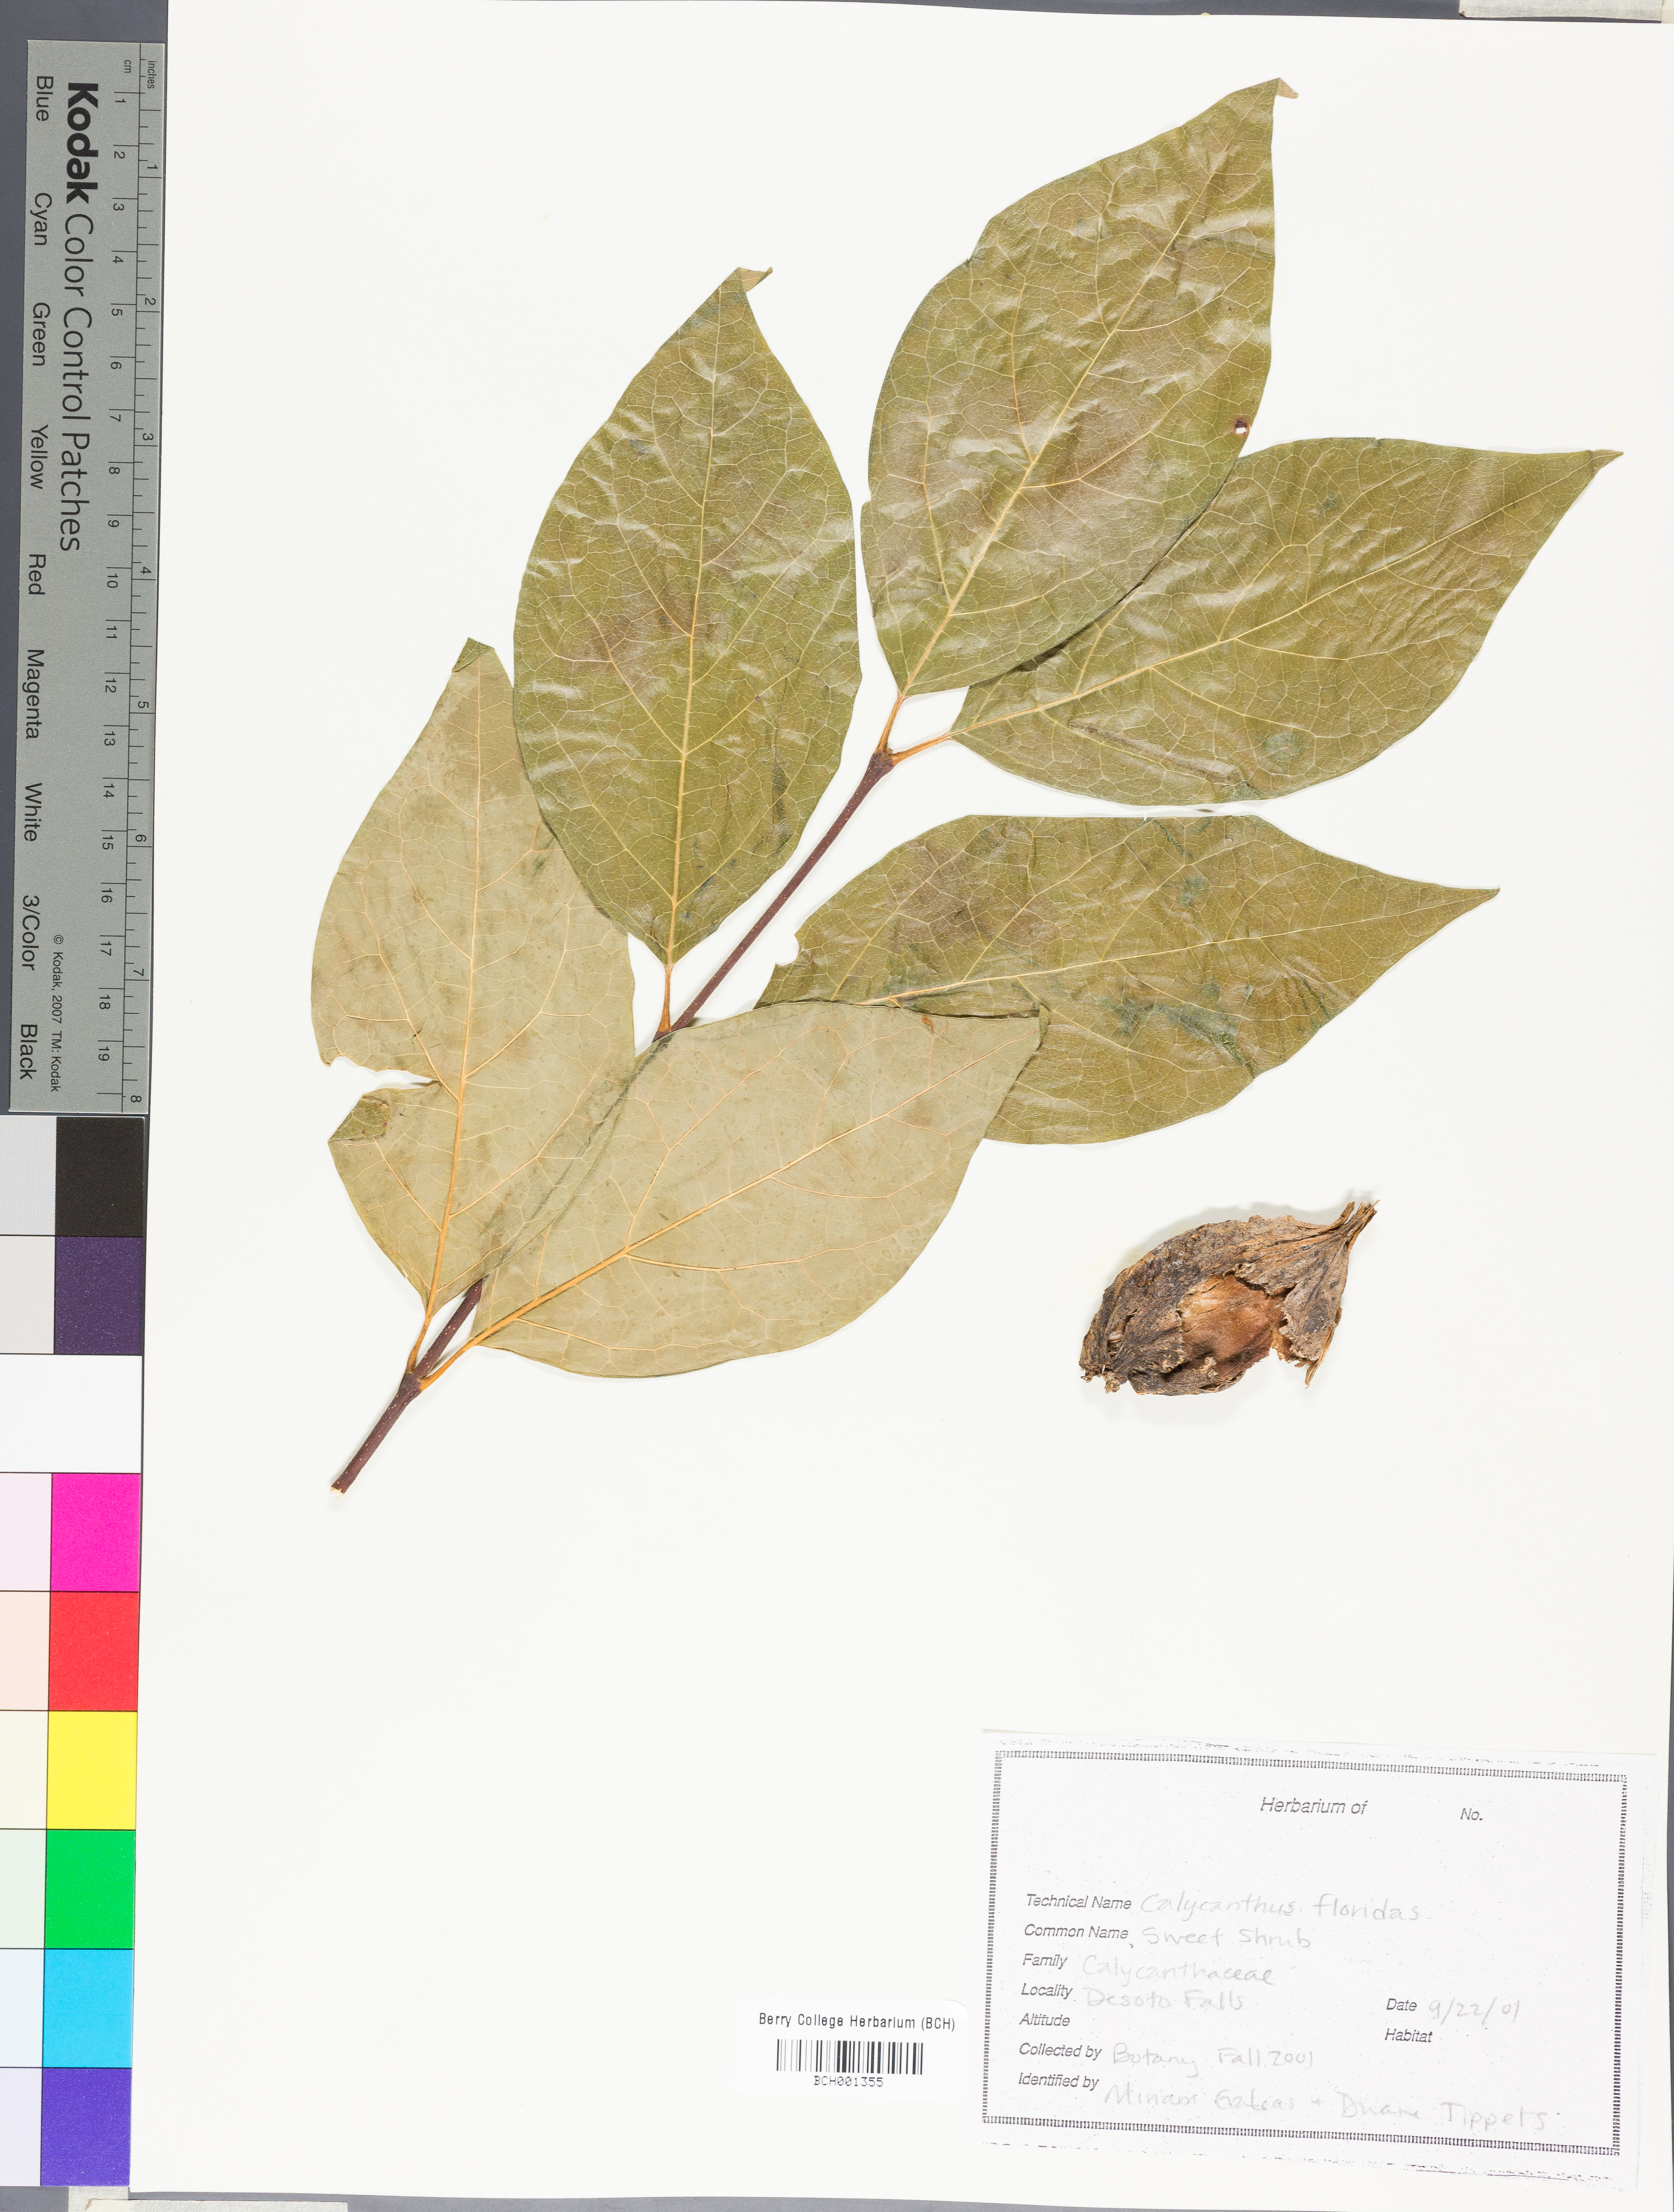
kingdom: Plantae
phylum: Tracheophyta
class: Magnoliopsida
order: Laurales
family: Calycanthaceae
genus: Calycanthus
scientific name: Calycanthus floridus
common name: Carolina-allspice
